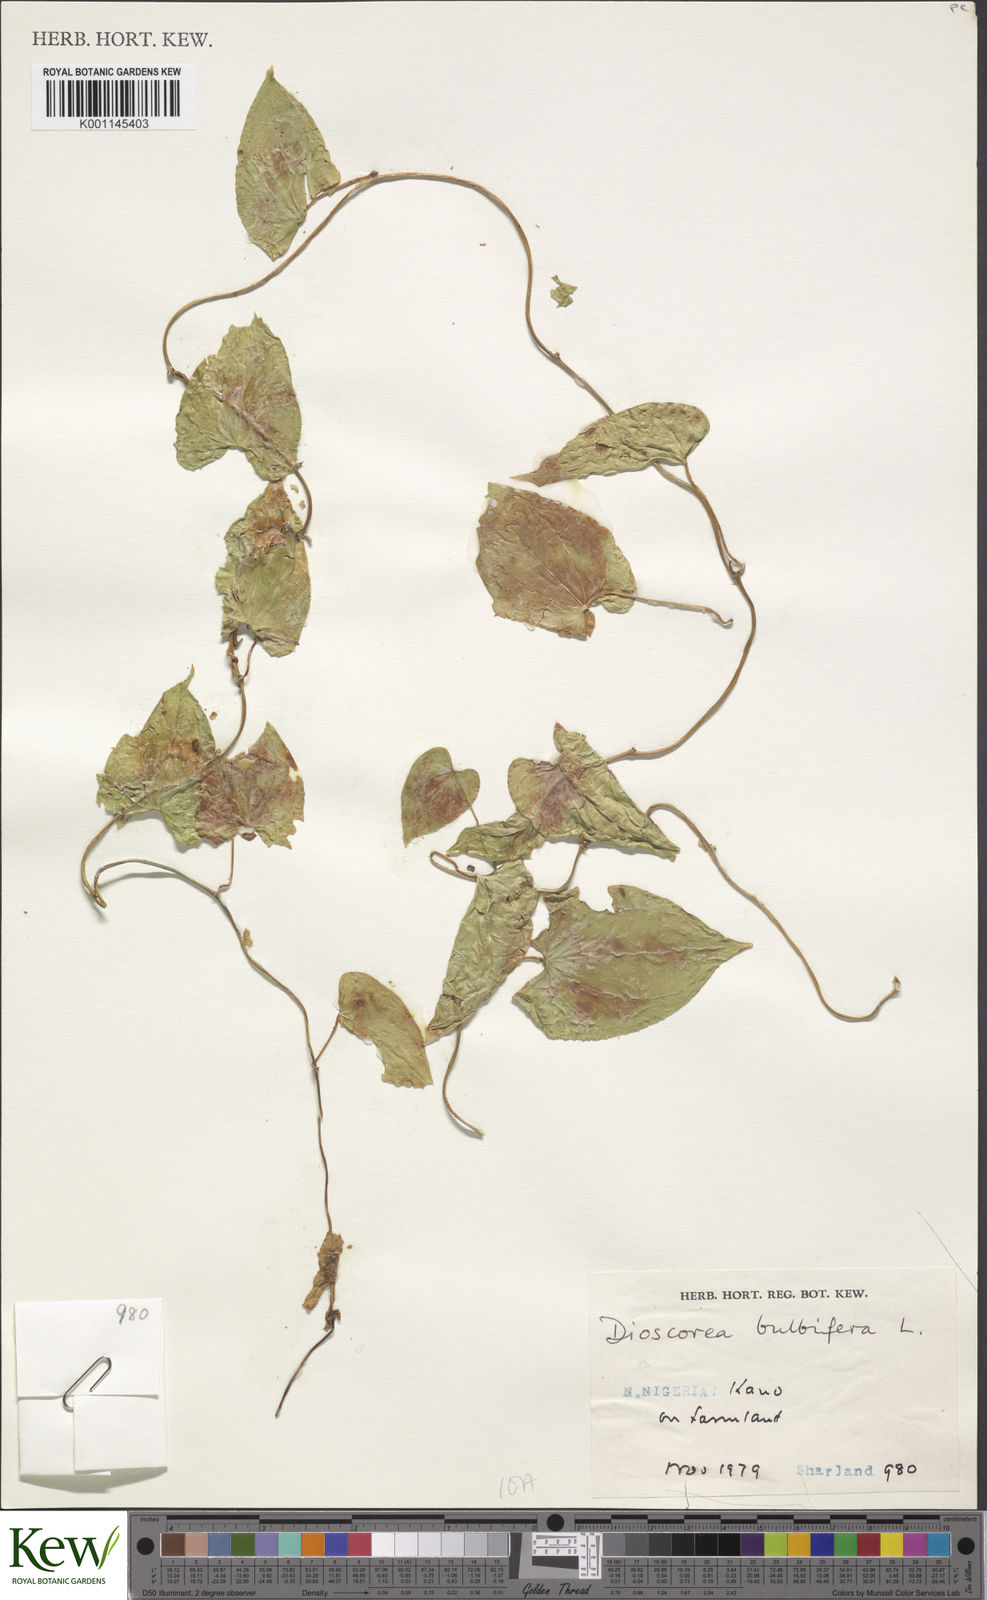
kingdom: Plantae
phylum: Tracheophyta
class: Liliopsida
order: Dioscoreales
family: Dioscoreaceae
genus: Dioscorea
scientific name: Dioscorea bulbifera
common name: Air yam
